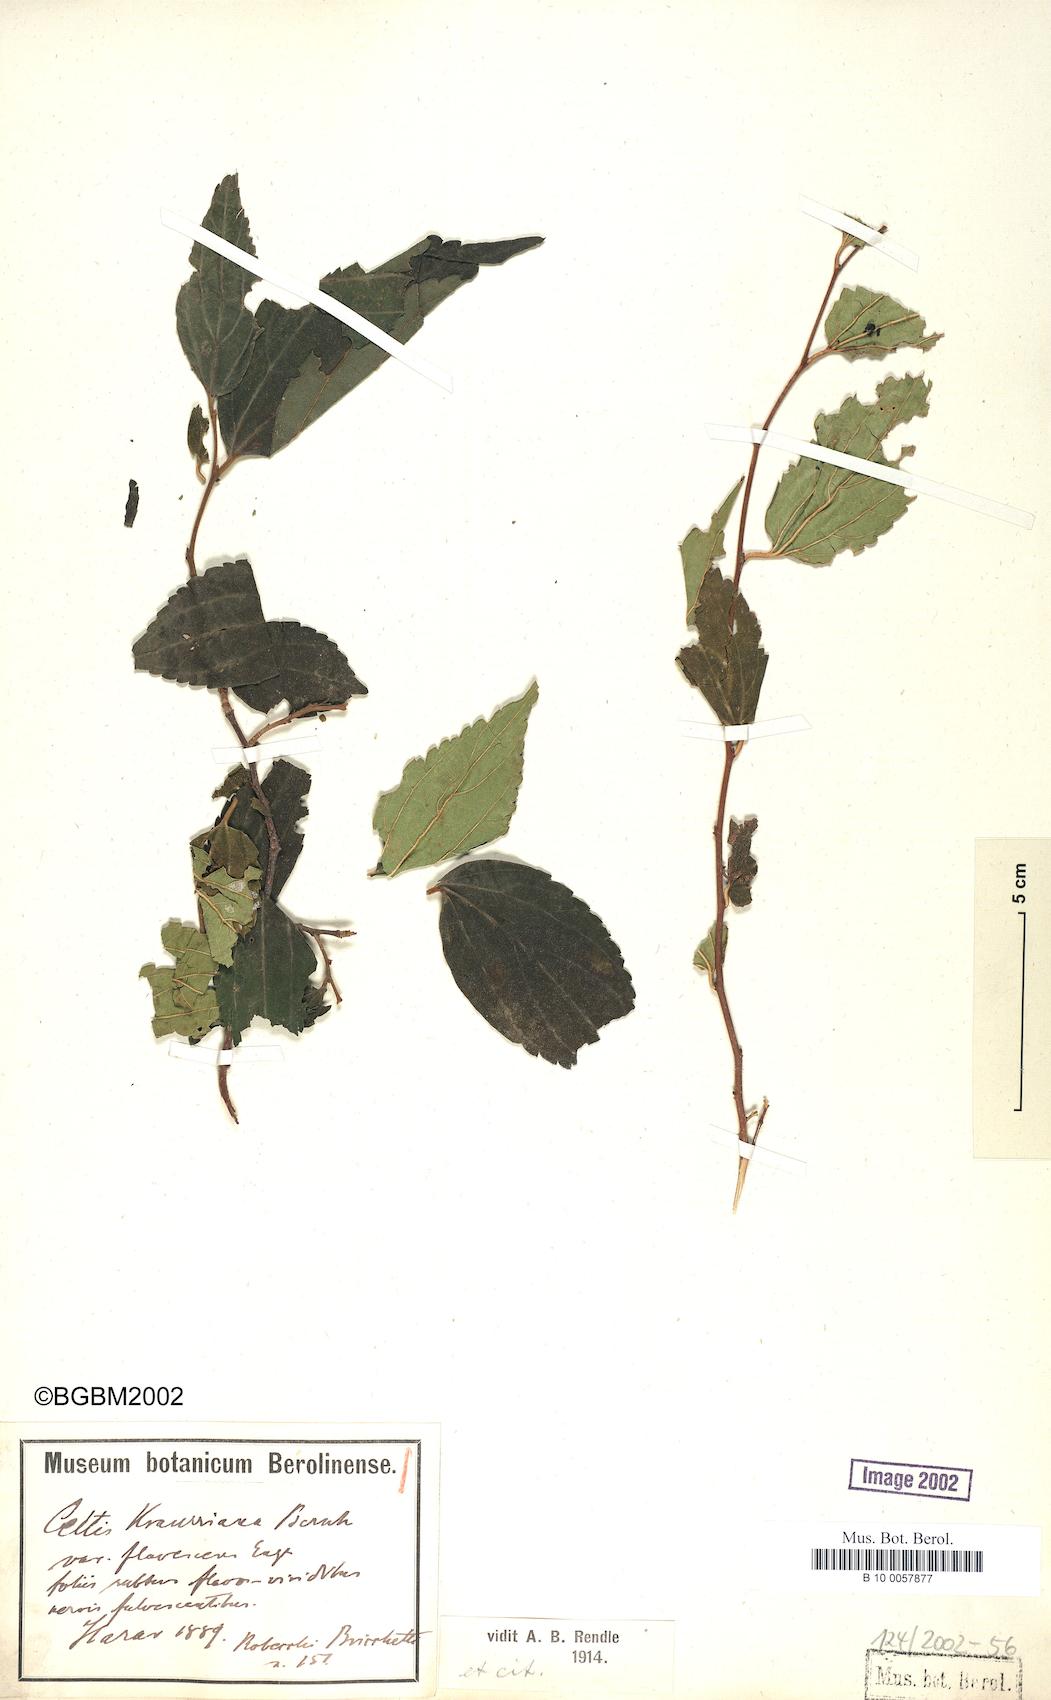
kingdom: Plantae
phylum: Tracheophyta
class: Magnoliopsida
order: Rosales
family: Cannabaceae
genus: Celtis
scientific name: Celtis africana
